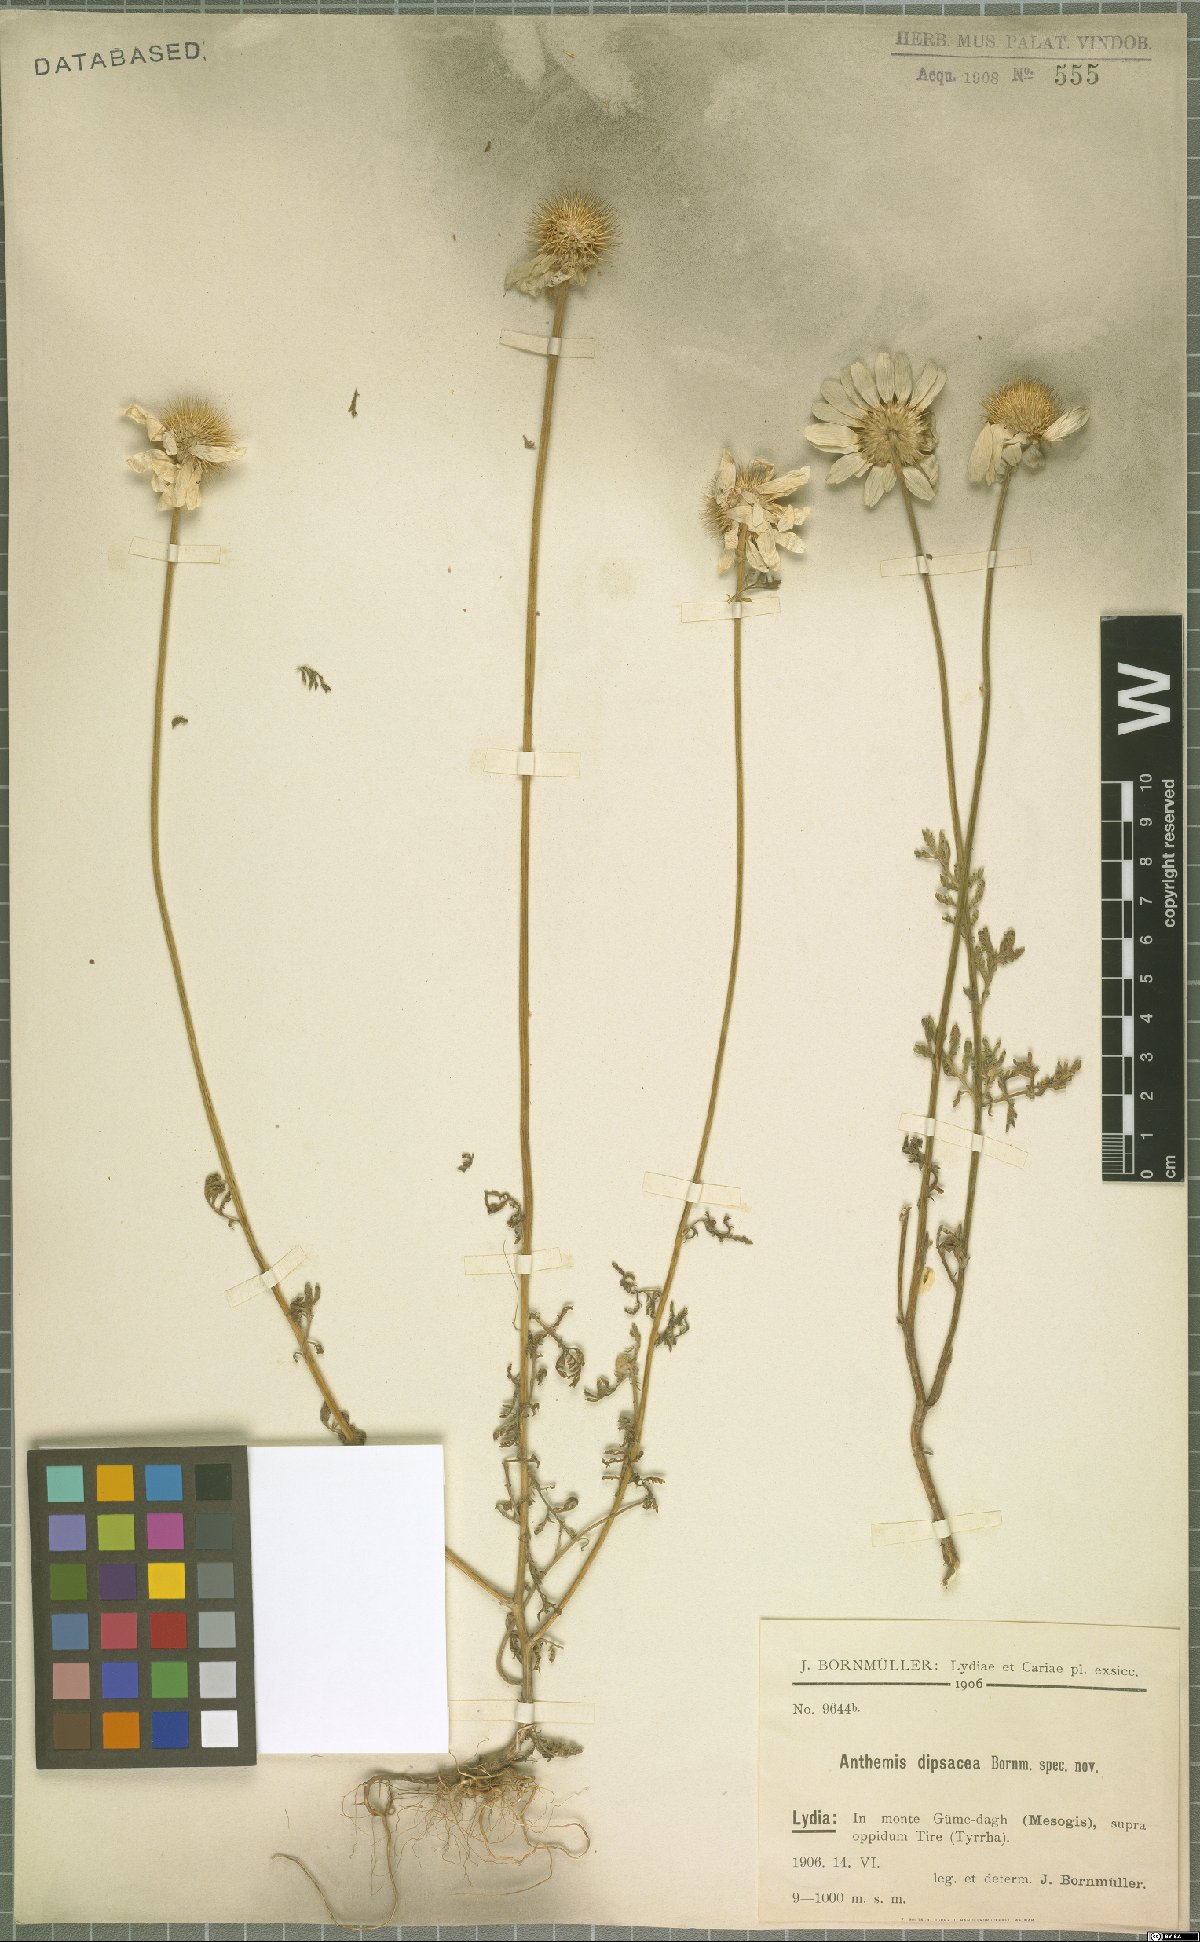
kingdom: Plantae
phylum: Tracheophyta
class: Magnoliopsida
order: Asterales
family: Asteraceae
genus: Cota
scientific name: Cota dipsacea
